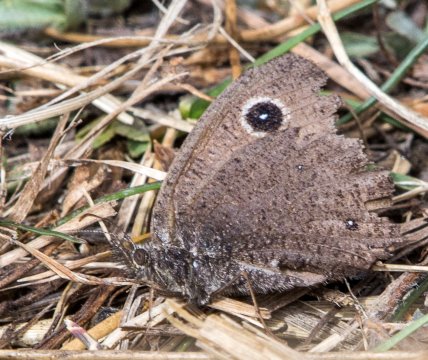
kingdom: Animalia
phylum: Arthropoda
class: Insecta
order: Lepidoptera
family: Nymphalidae
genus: Cercyonis
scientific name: Cercyonis oetus
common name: Small Wood-Nymph
